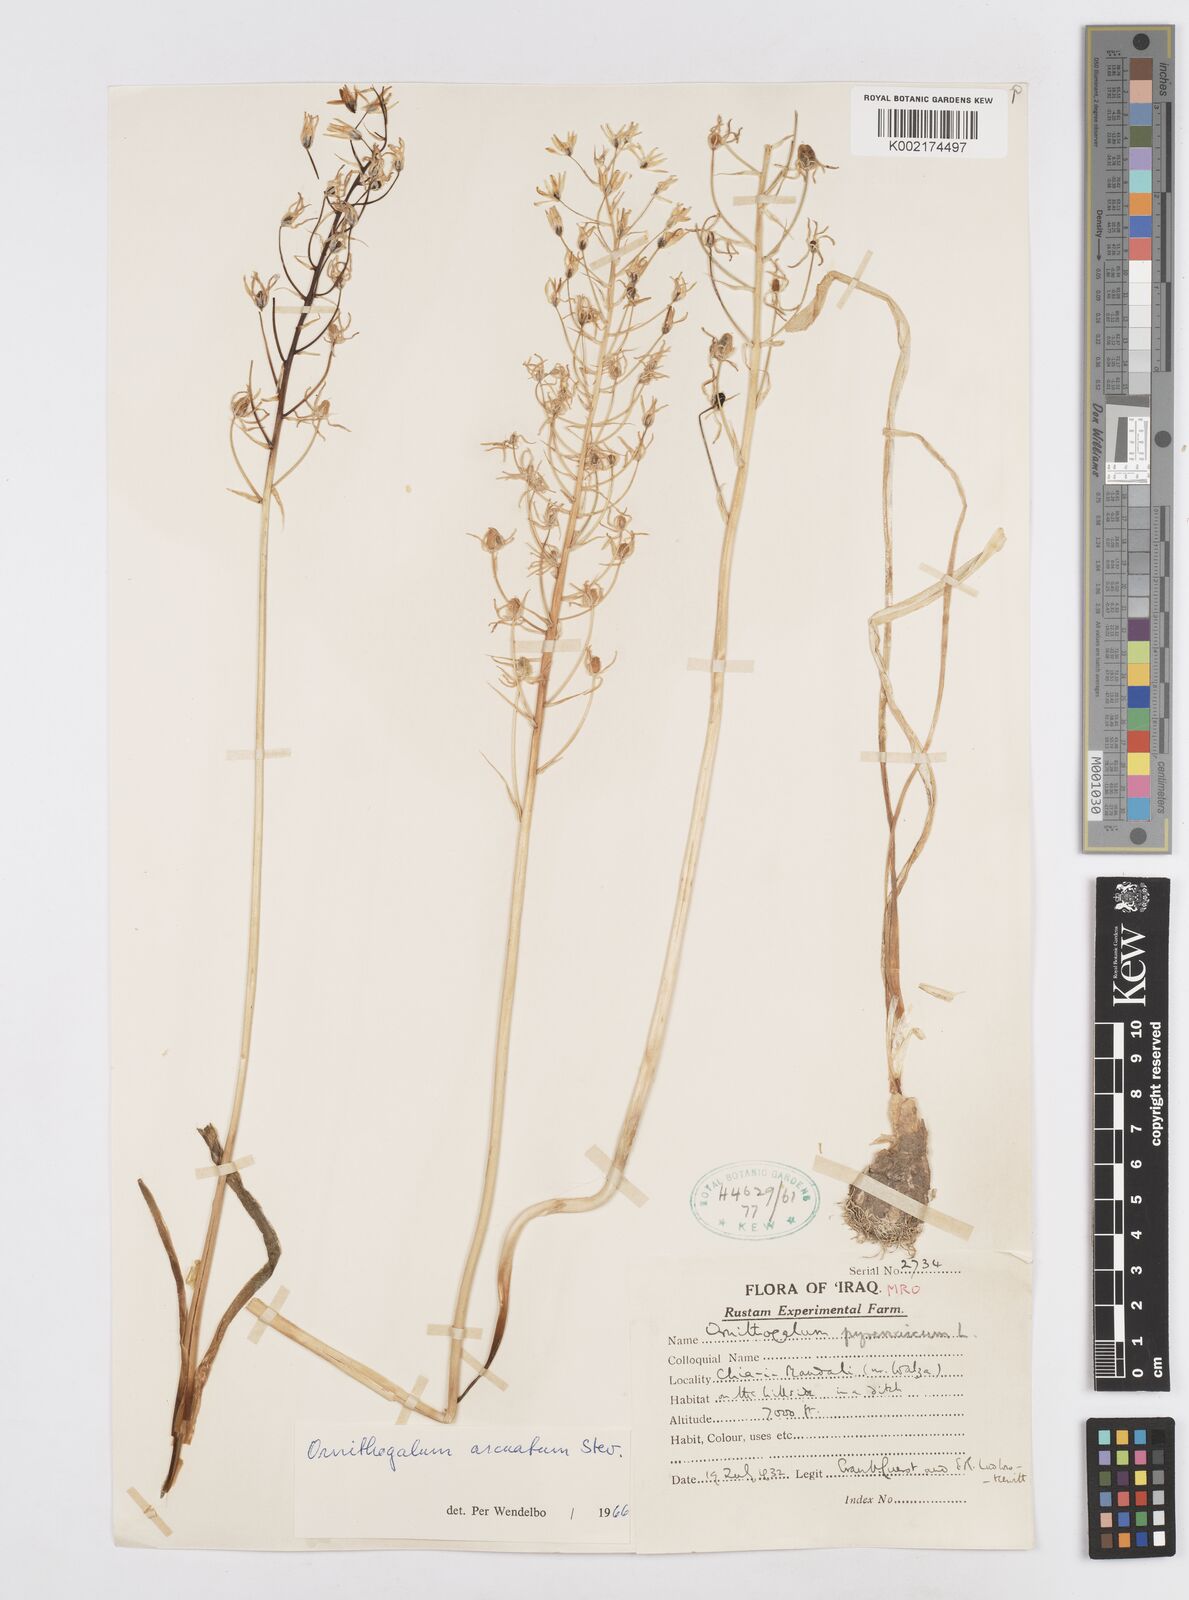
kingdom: Plantae
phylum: Tracheophyta
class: Liliopsida
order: Asparagales
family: Asparagaceae
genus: Ornithogalum
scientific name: Ornithogalum arcuatum
